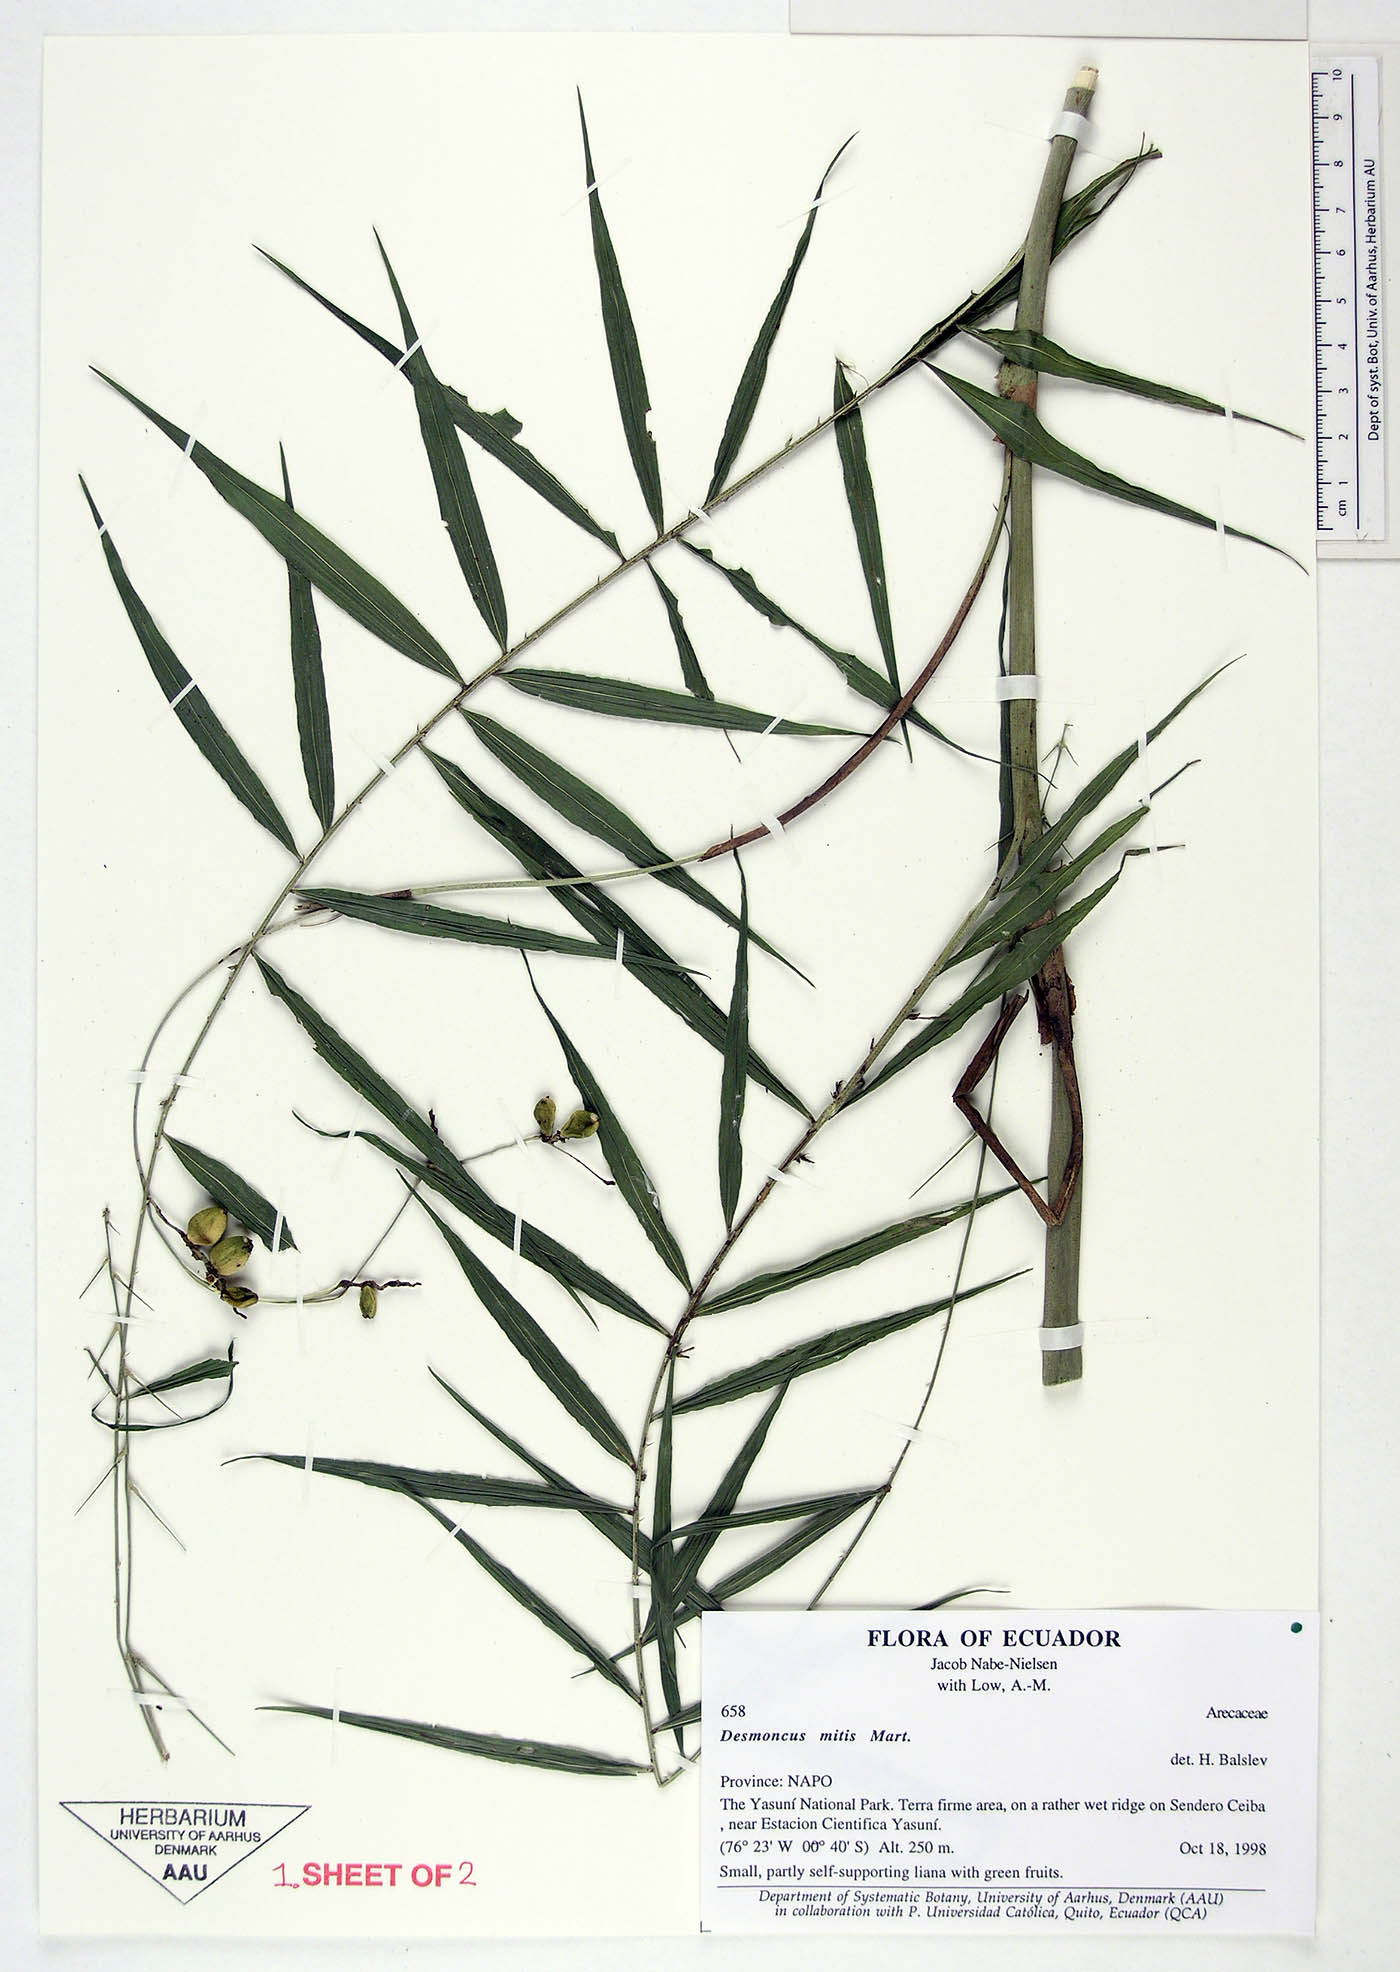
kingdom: Plantae
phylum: Tracheophyta
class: Liliopsida
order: Arecales
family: Arecaceae
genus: Desmoncus
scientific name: Desmoncus mitis
